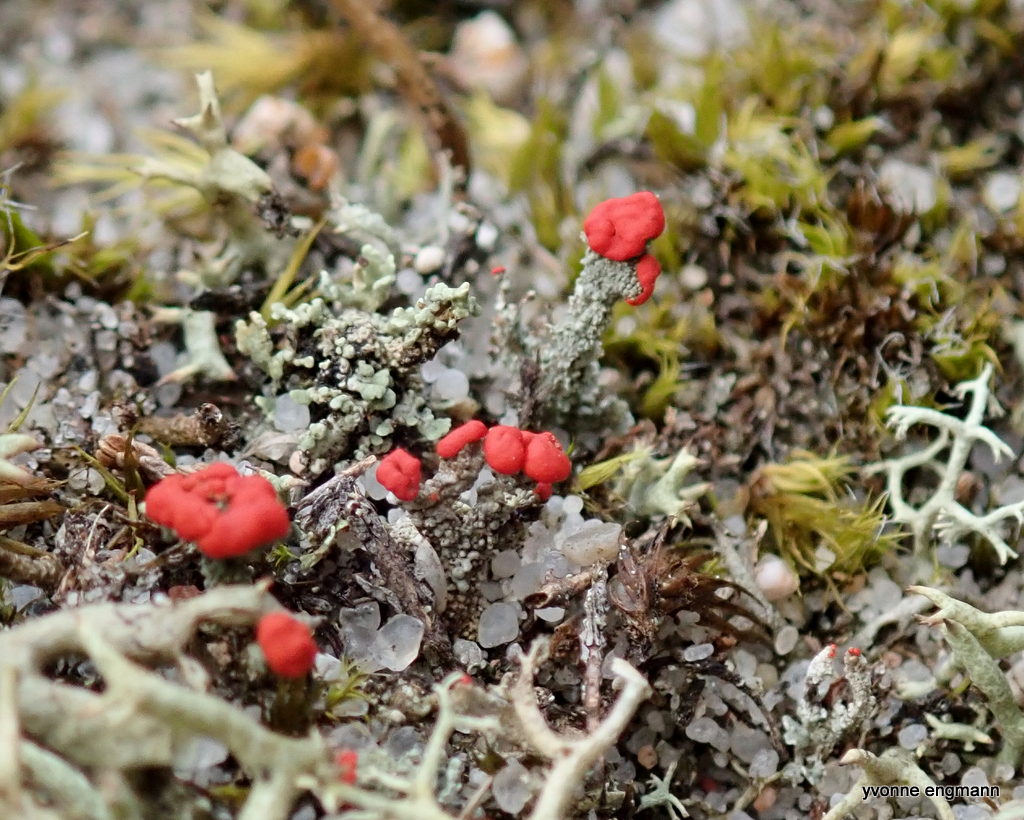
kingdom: Fungi
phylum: Ascomycota
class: Lecanoromycetes
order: Lecanorales
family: Cladoniaceae
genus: Cladonia
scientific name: Cladonia floerkeana
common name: lakrød bægerlav
